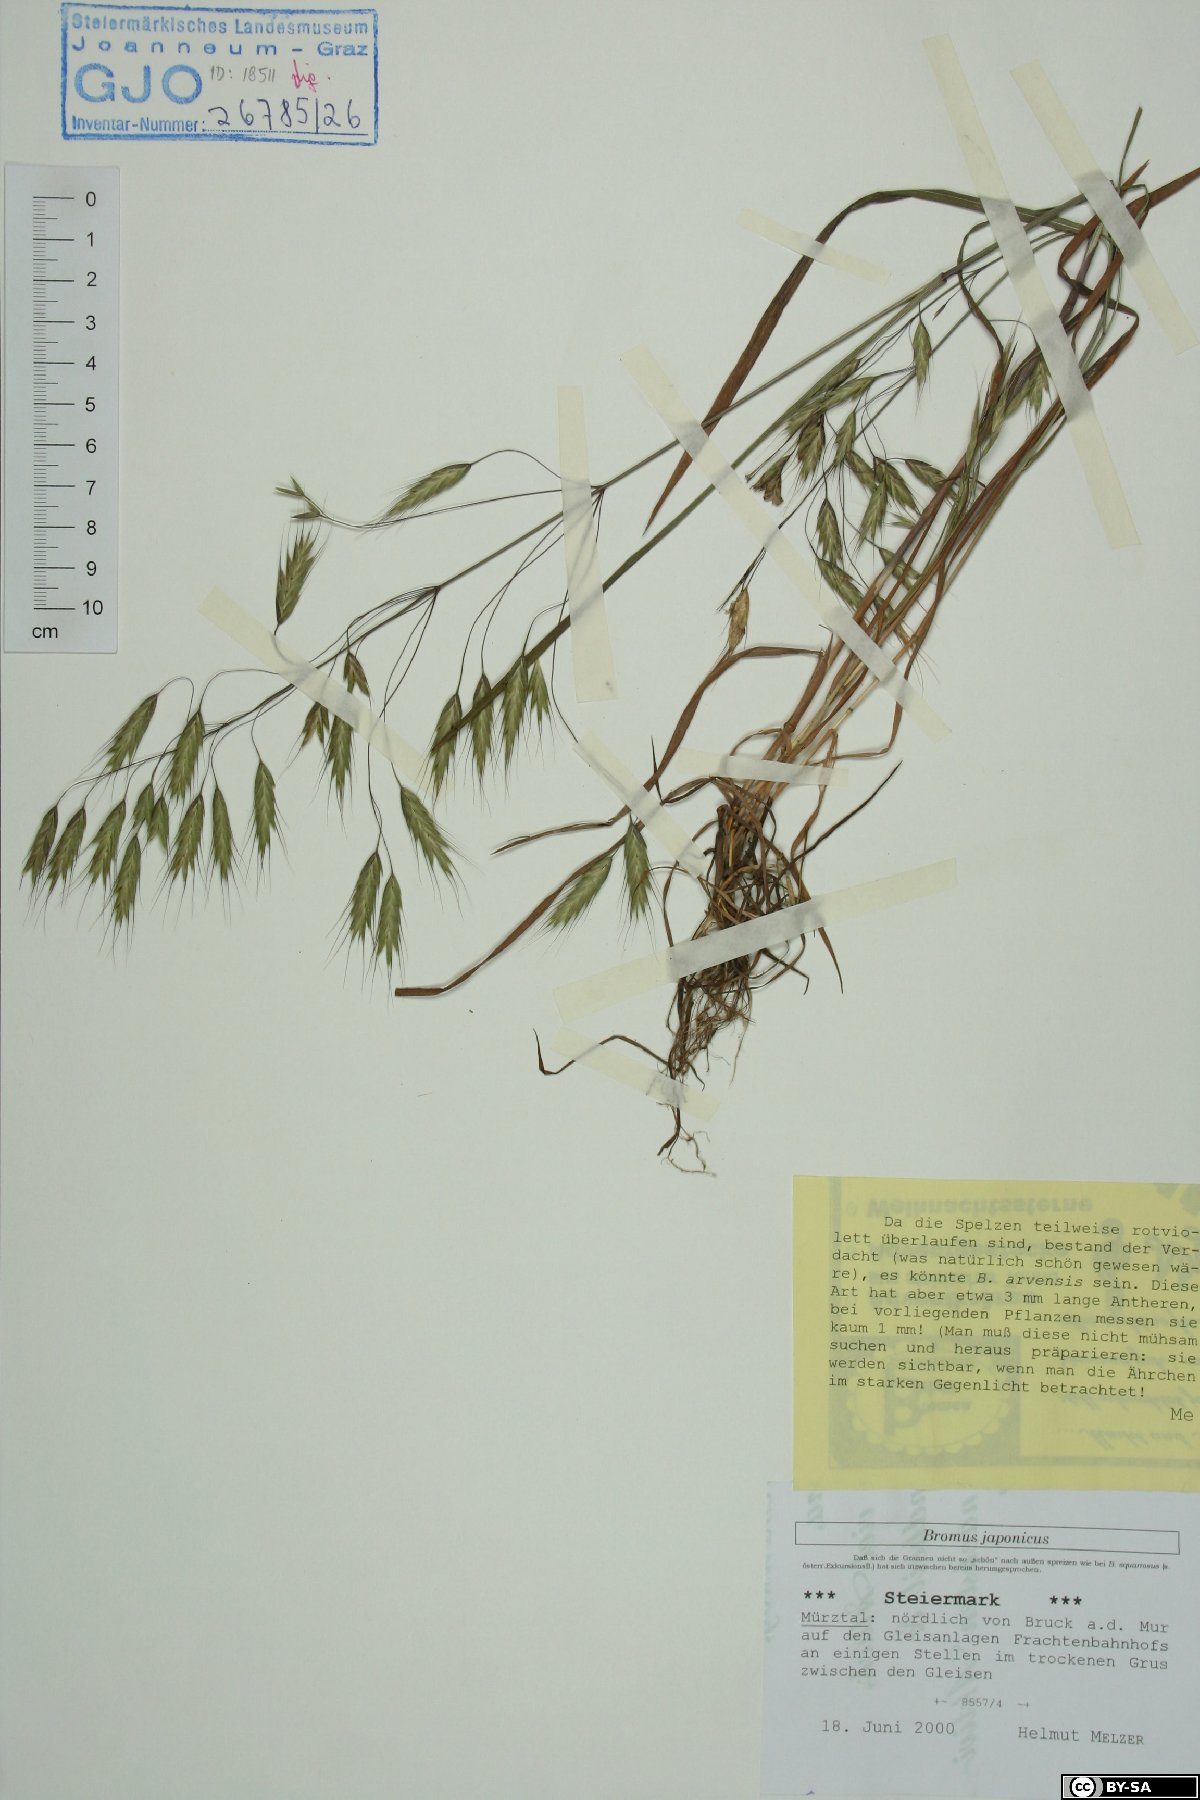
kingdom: Plantae
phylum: Tracheophyta
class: Liliopsida
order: Poales
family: Poaceae
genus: Bromus
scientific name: Bromus japonicus
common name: Japanese brome
